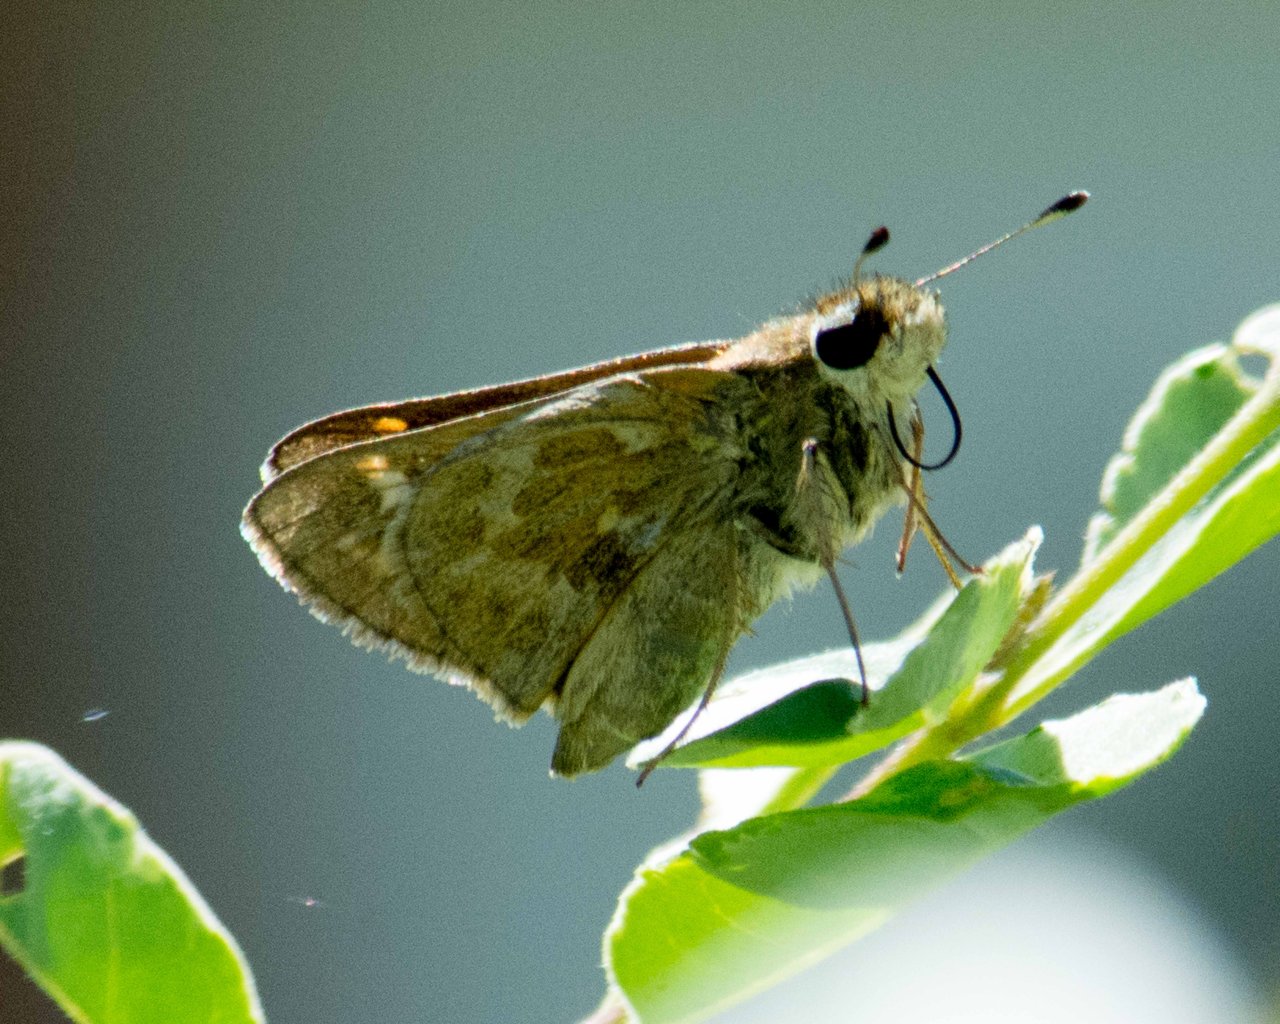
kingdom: Animalia
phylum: Arthropoda
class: Insecta
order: Lepidoptera
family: Hesperiidae
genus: Atalopedes
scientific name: Atalopedes campestris
